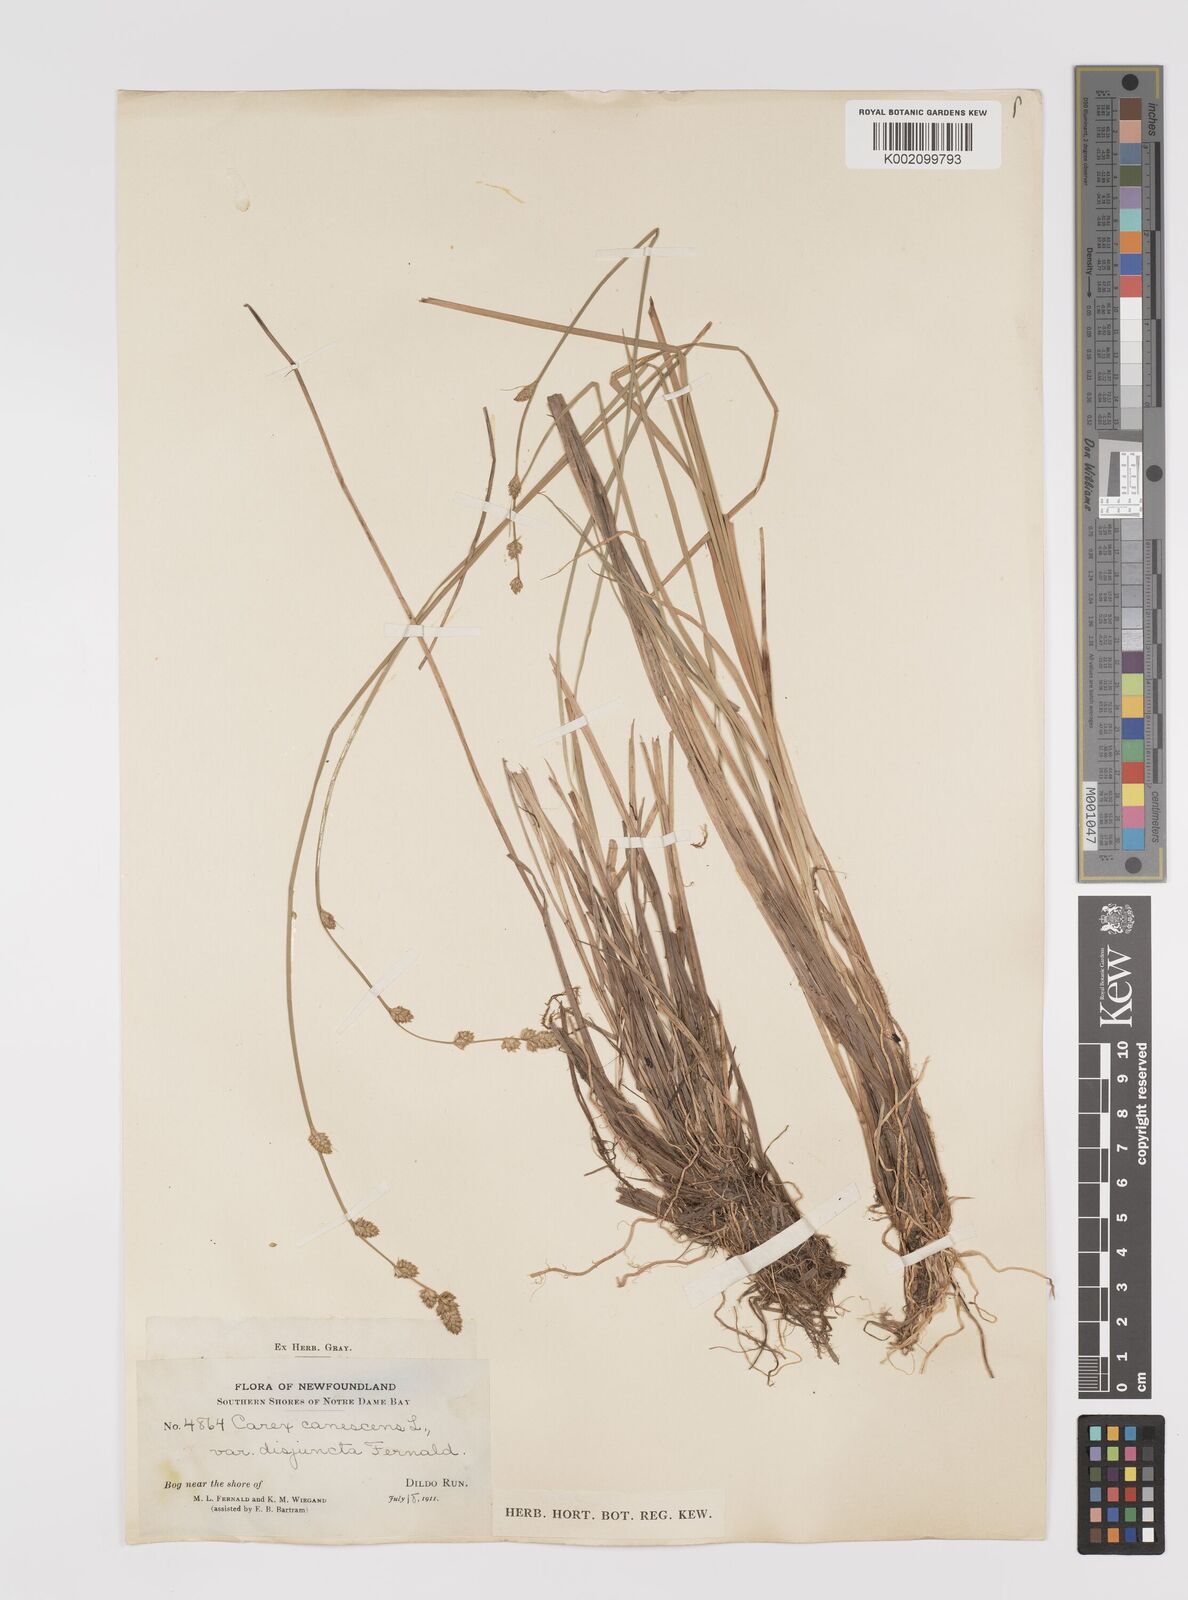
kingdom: Plantae
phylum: Tracheophyta
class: Liliopsida
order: Poales
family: Cyperaceae
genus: Carex
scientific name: Carex curta
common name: White sedge
